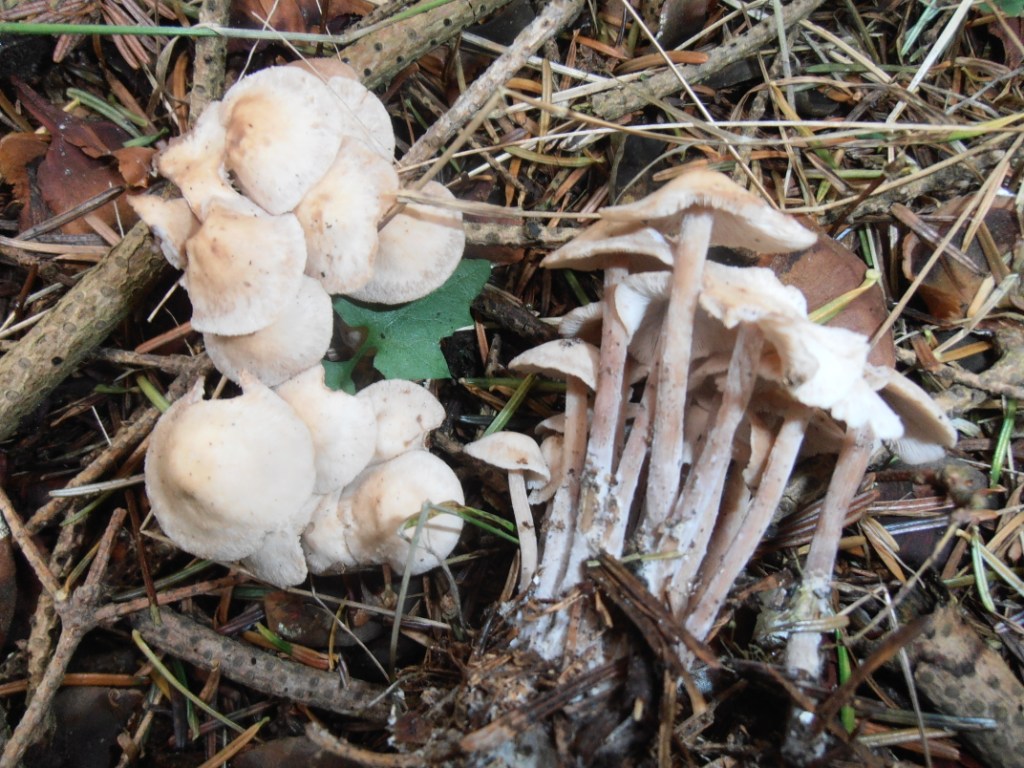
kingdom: Fungi
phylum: Basidiomycota
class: Agaricomycetes
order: Agaricales
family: Omphalotaceae
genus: Collybiopsis
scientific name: Collybiopsis confluens
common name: knippe-fladhat
